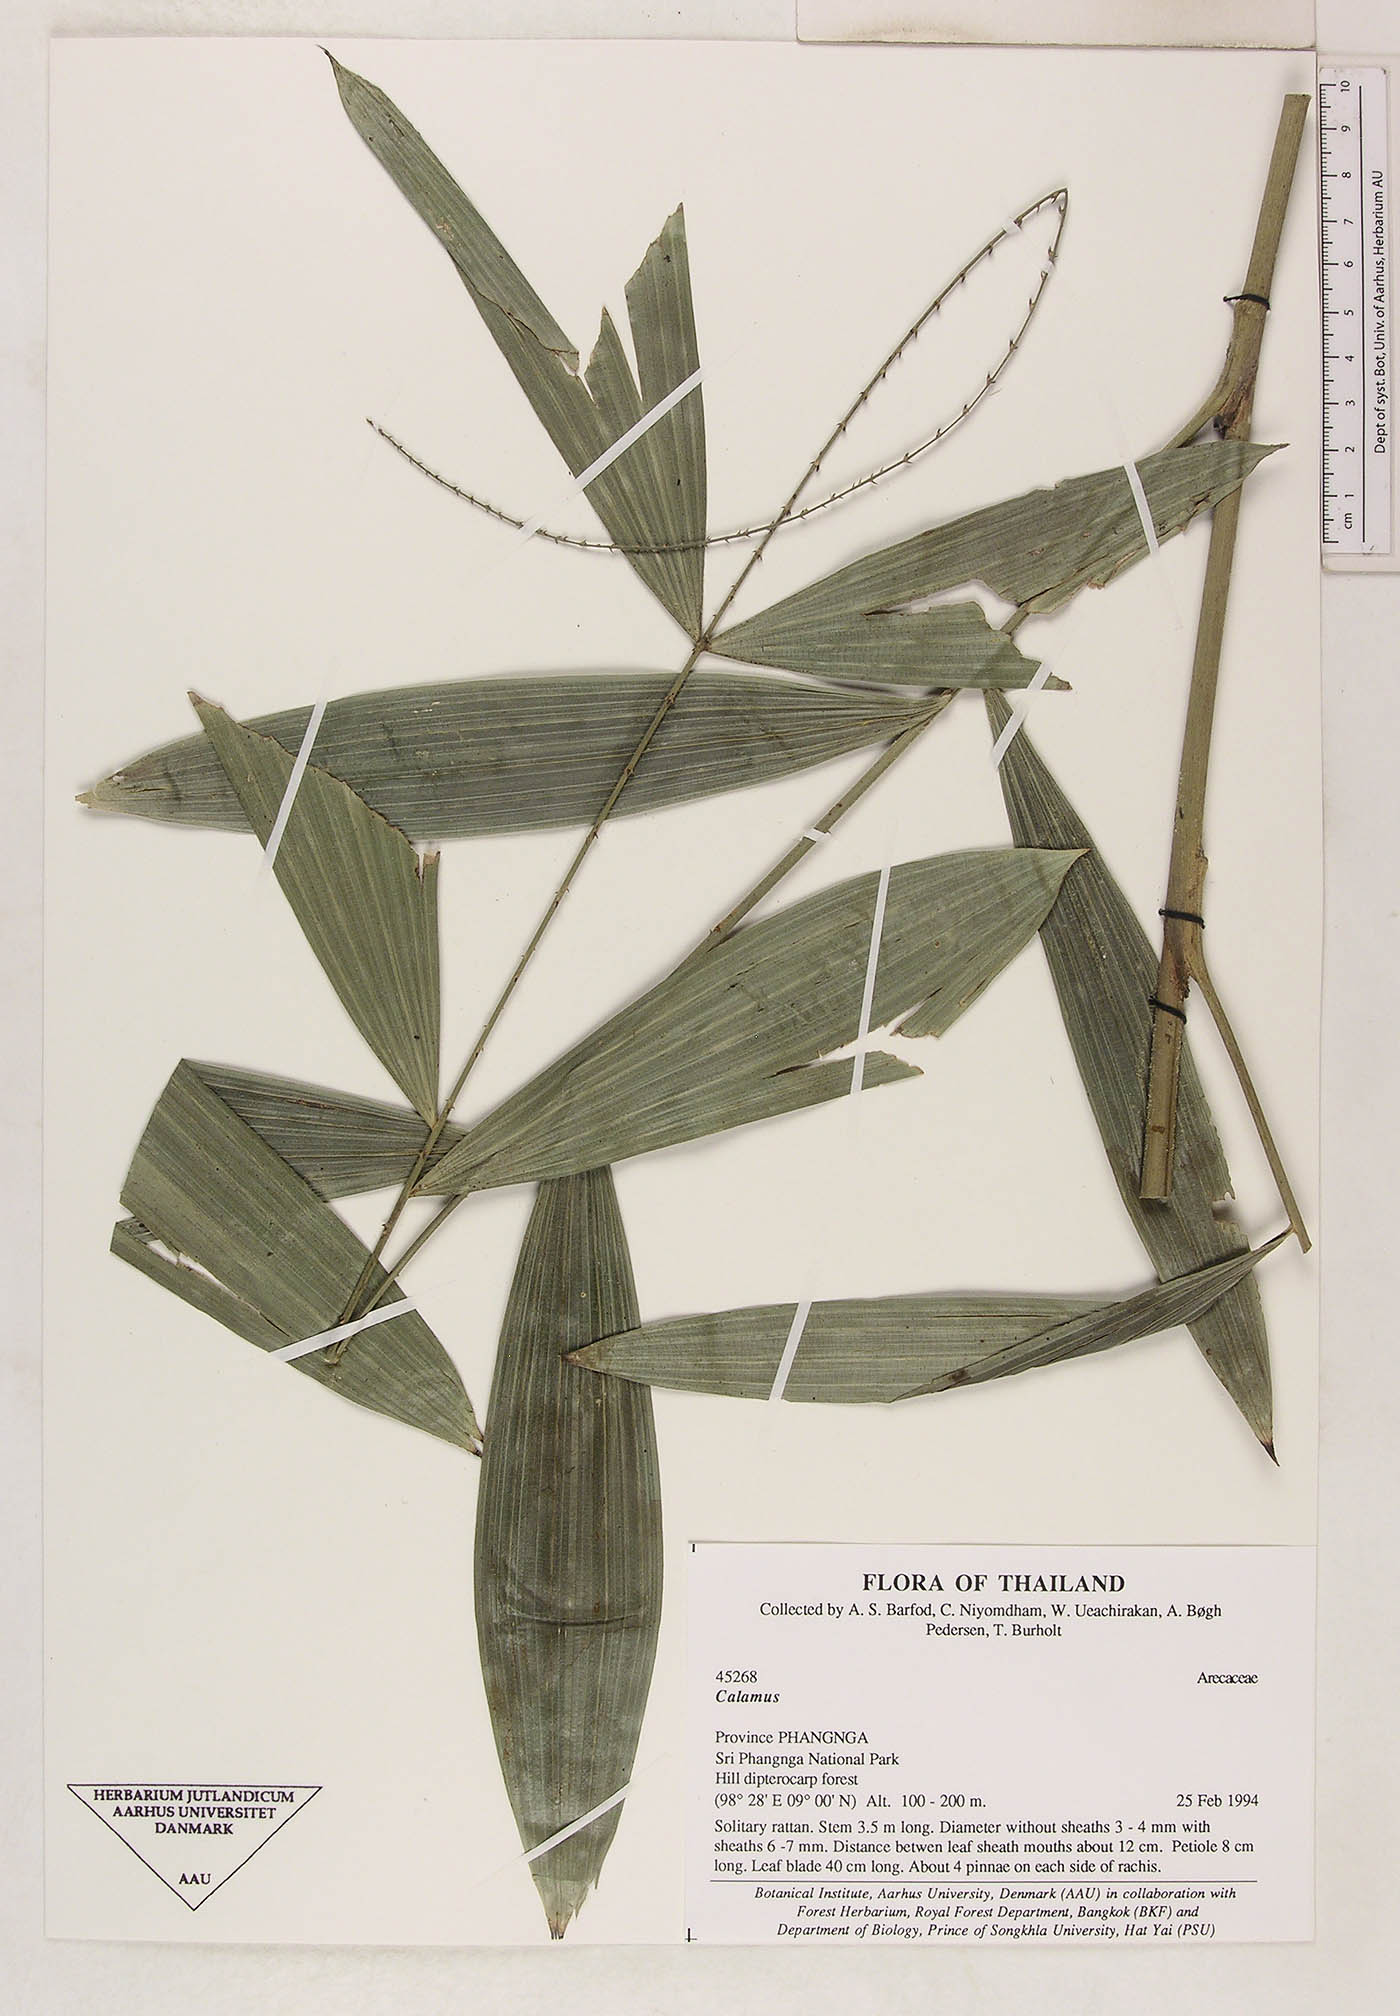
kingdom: Plantae
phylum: Tracheophyta
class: Liliopsida
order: Arecales
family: Arecaceae
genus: Calamus
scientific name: Calamus latifolius
